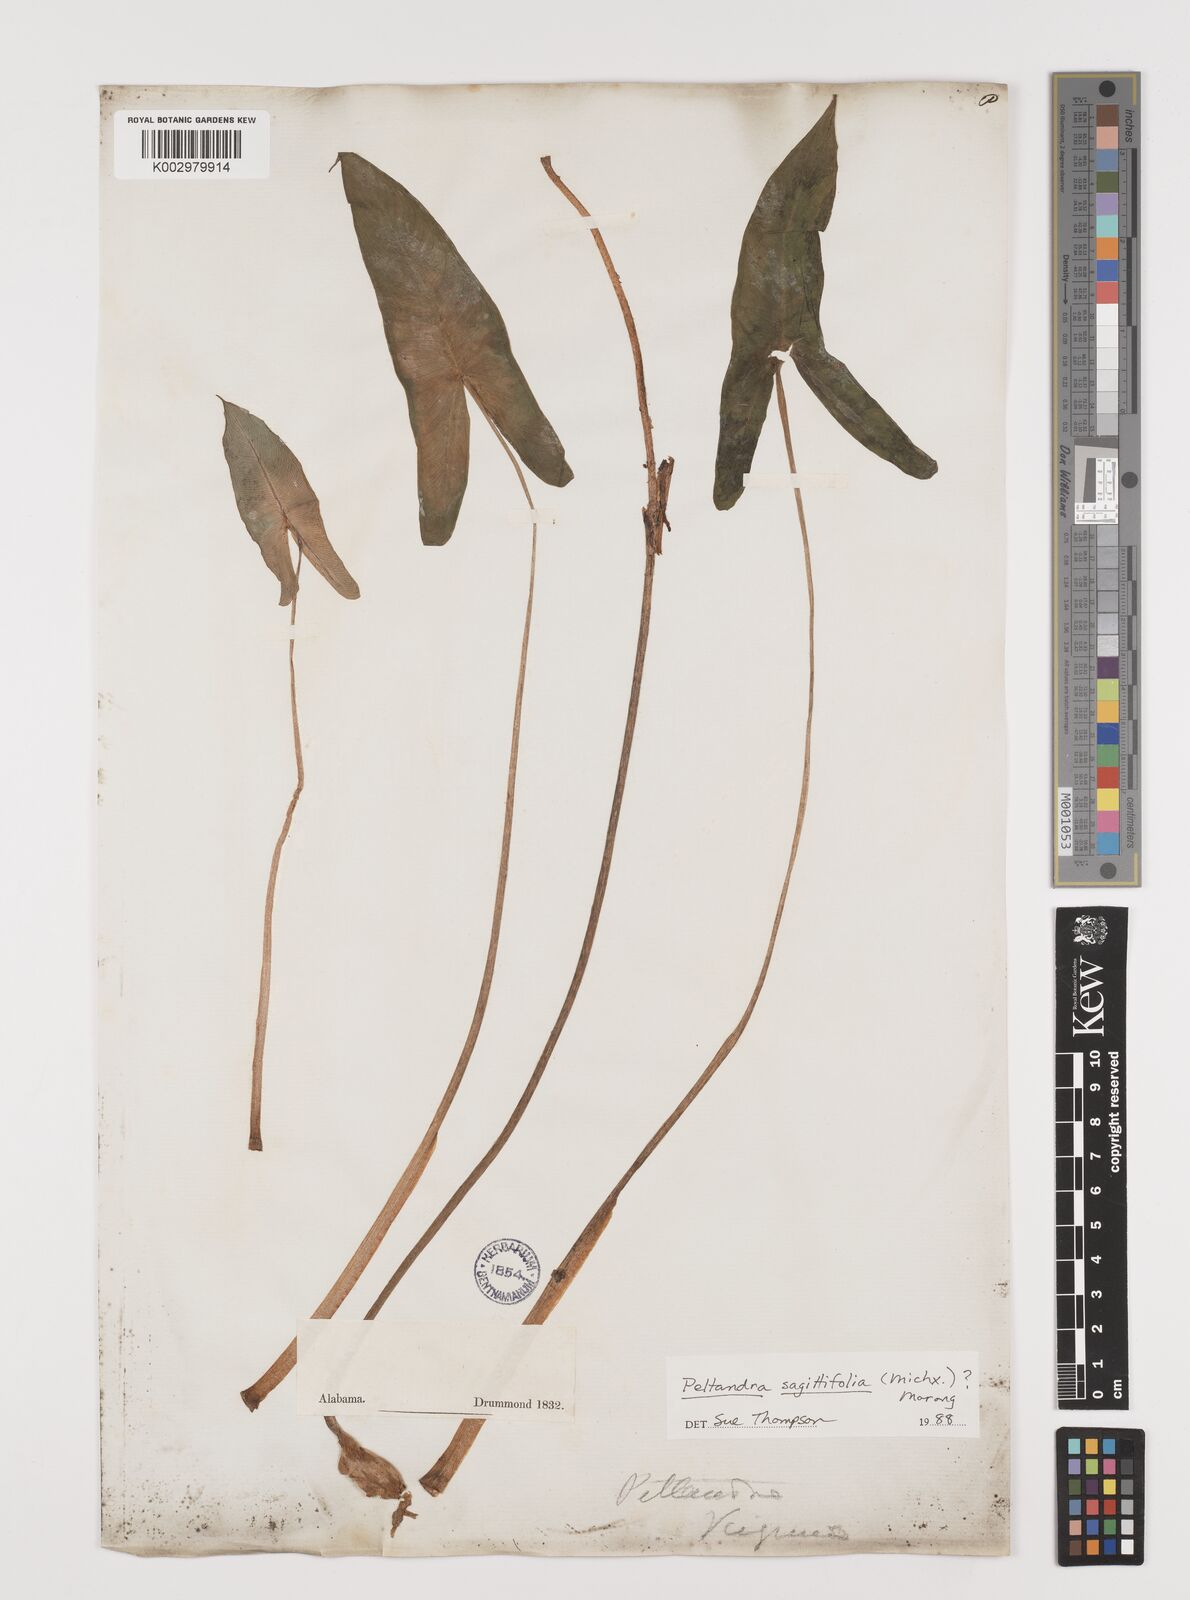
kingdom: Plantae
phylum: Tracheophyta
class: Liliopsida
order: Alismatales
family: Araceae
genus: Peltandra
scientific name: Peltandra sagittifolia
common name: White arrow arum
